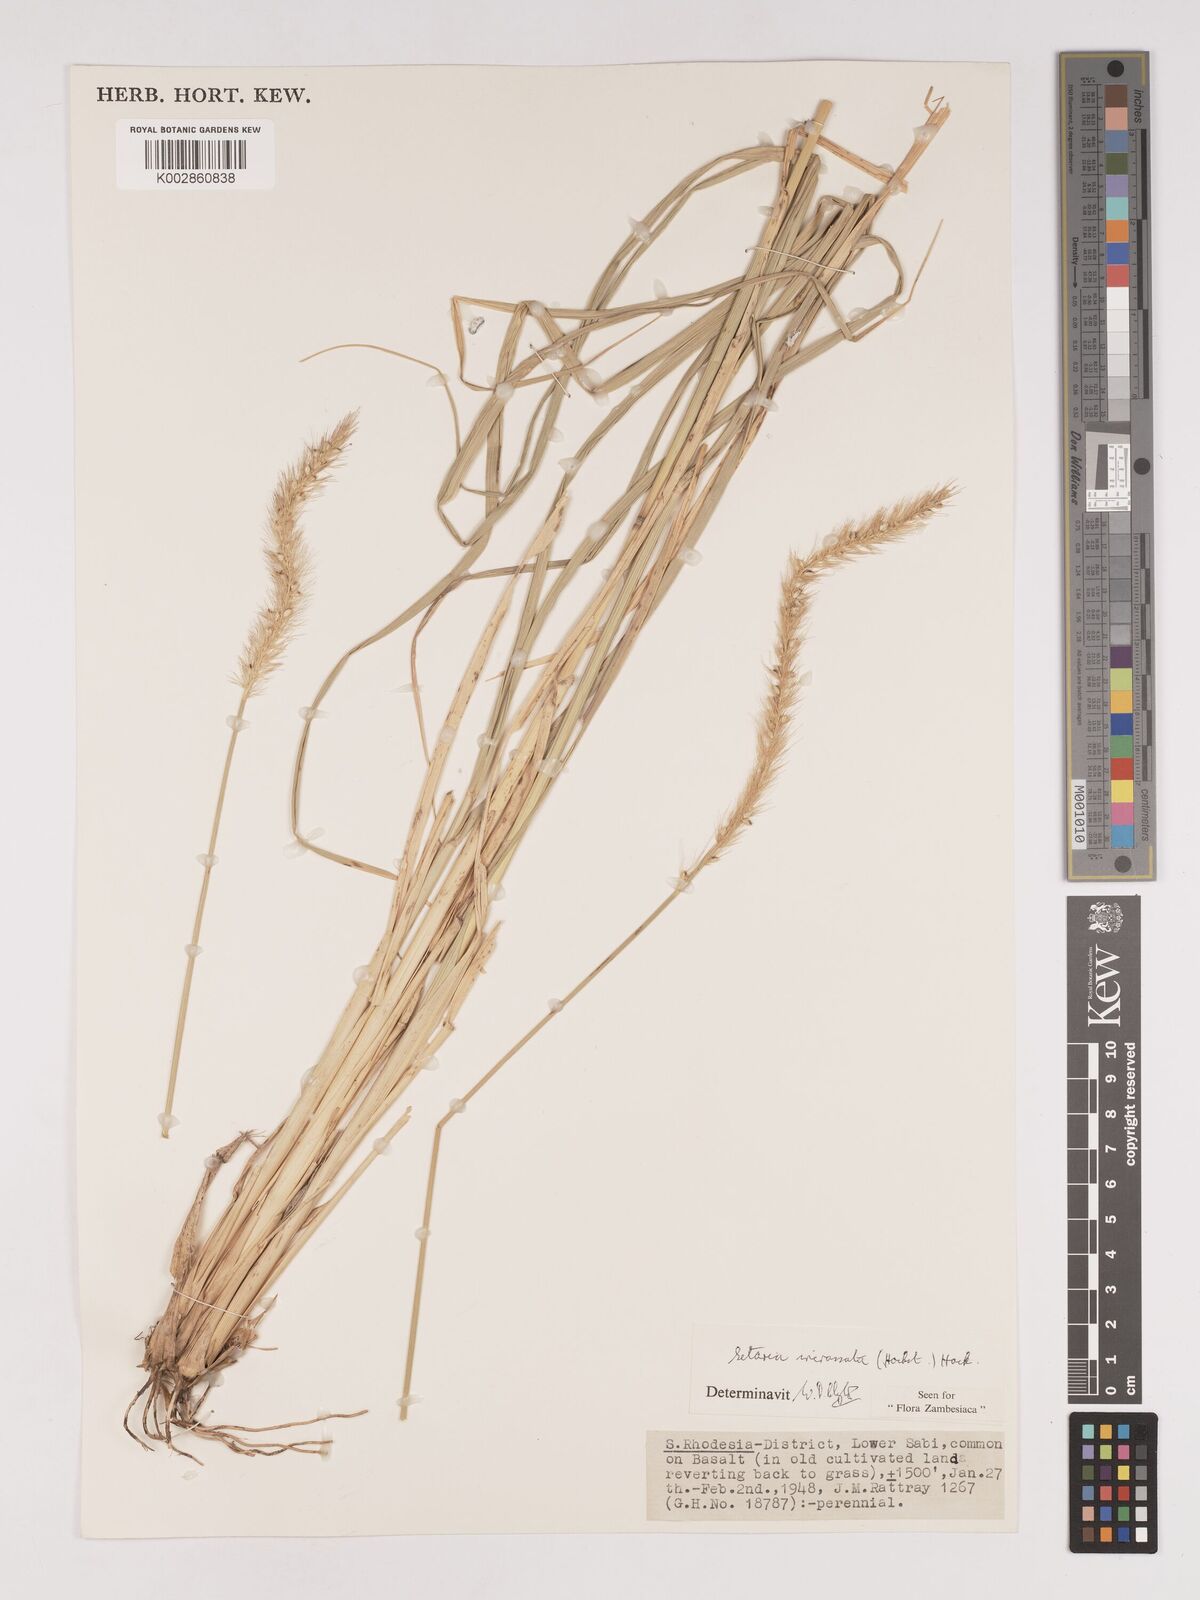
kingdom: Plantae
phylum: Tracheophyta
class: Liliopsida
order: Poales
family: Poaceae
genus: Setaria
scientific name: Setaria incrassata
